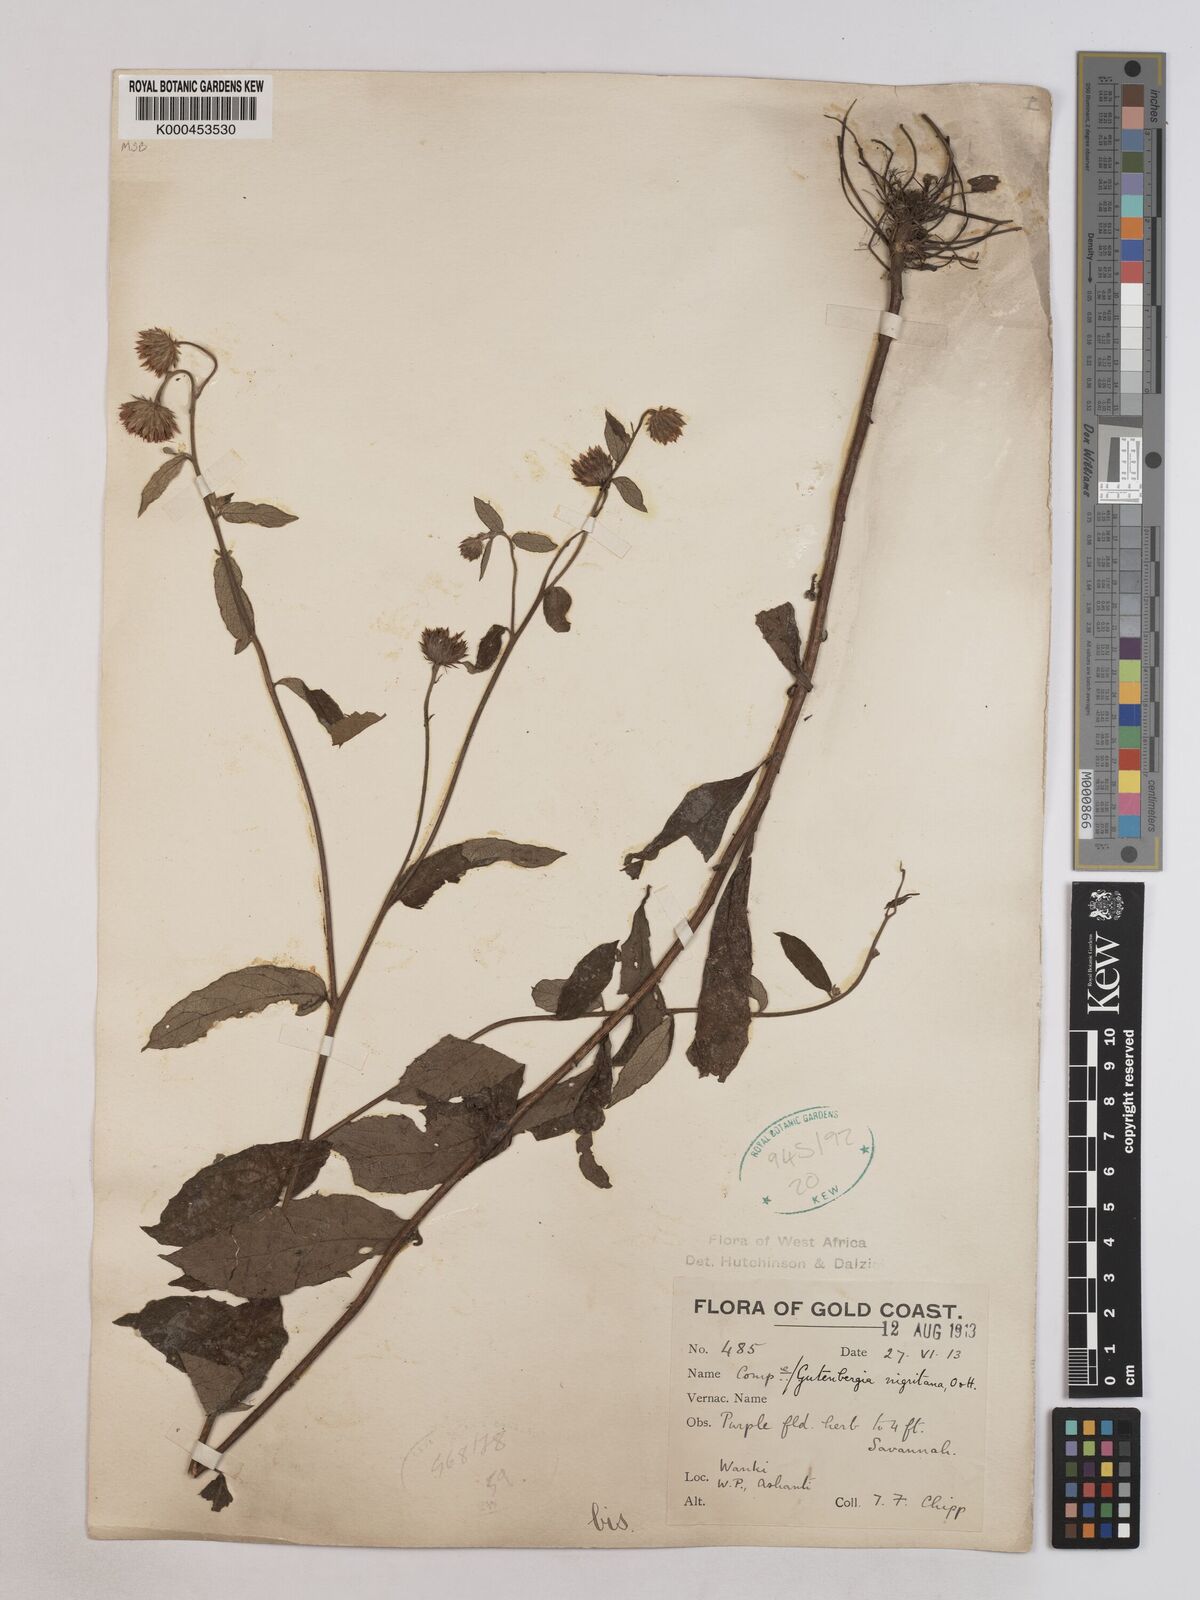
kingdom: Plantae
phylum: Tracheophyta
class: Magnoliopsida
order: Asterales
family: Asteraceae
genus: Kinghamia
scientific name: Kinghamia nigritana
